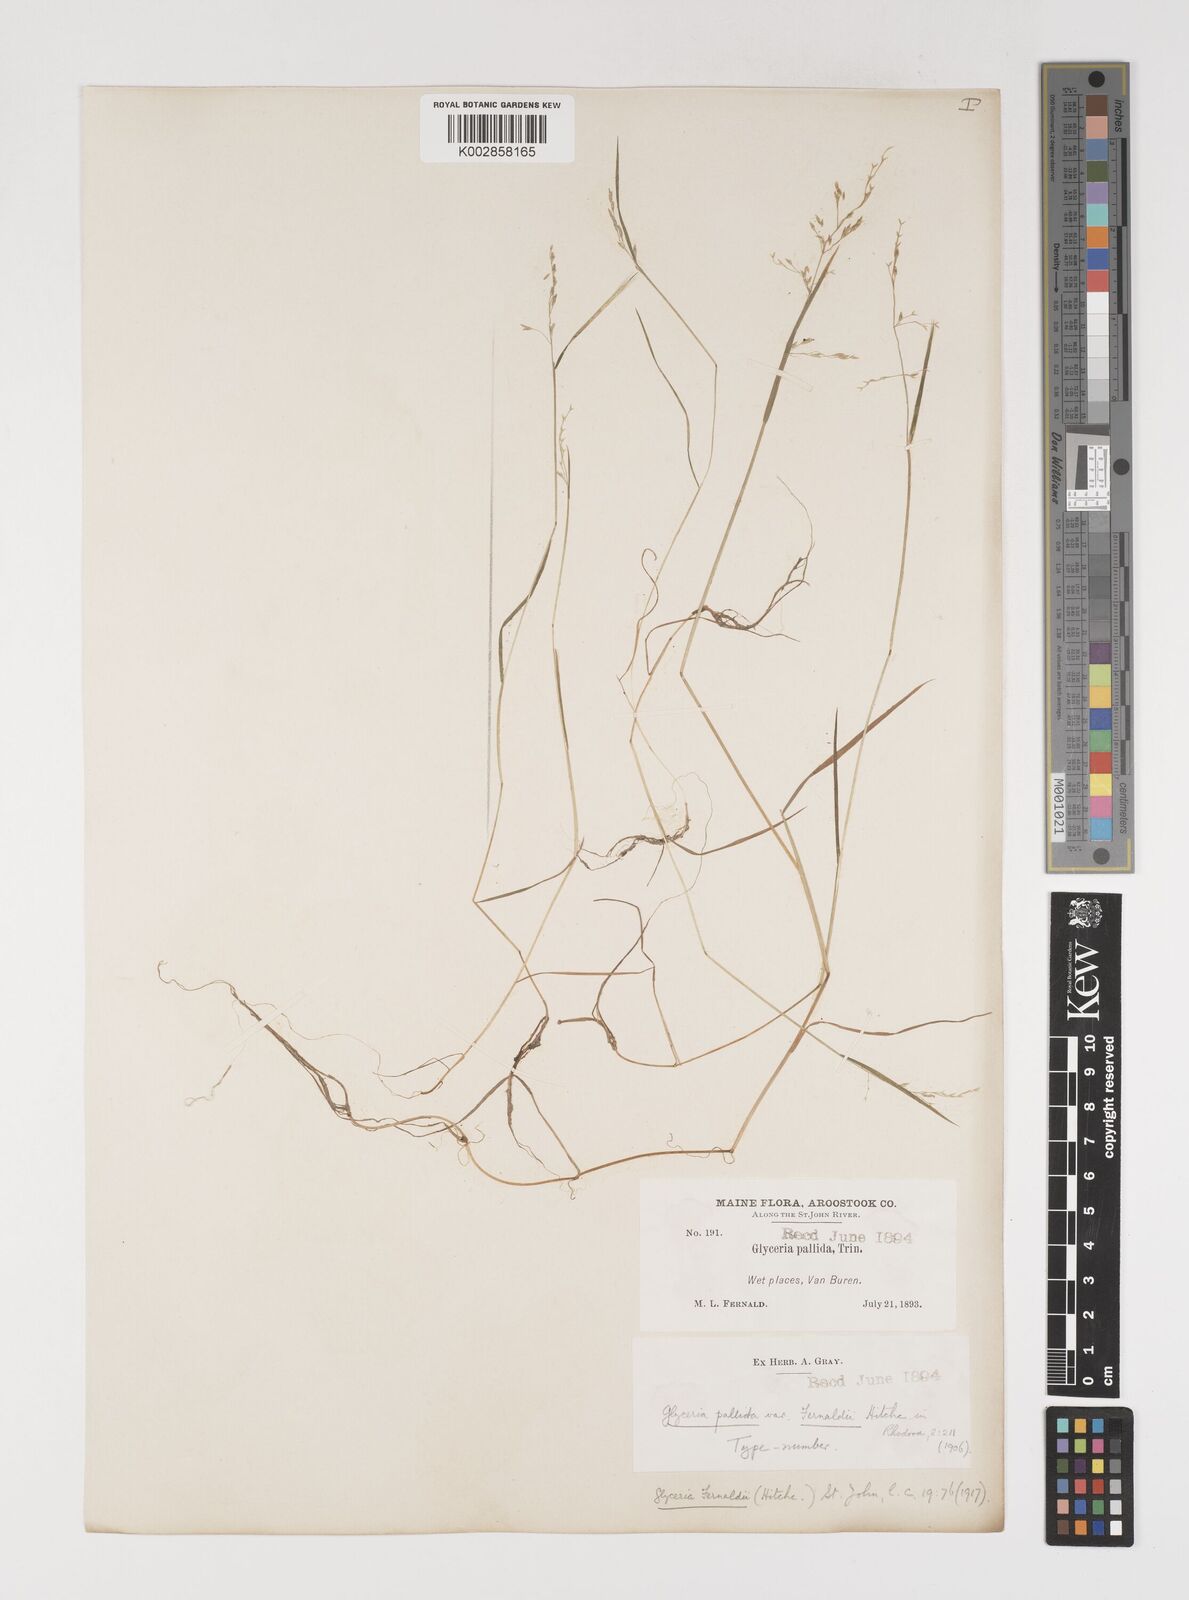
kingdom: Plantae
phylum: Tracheophyta
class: Liliopsida
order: Poales
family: Poaceae
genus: Torreyochloa
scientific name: Torreyochloa pallida
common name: Pale false mannagrass
